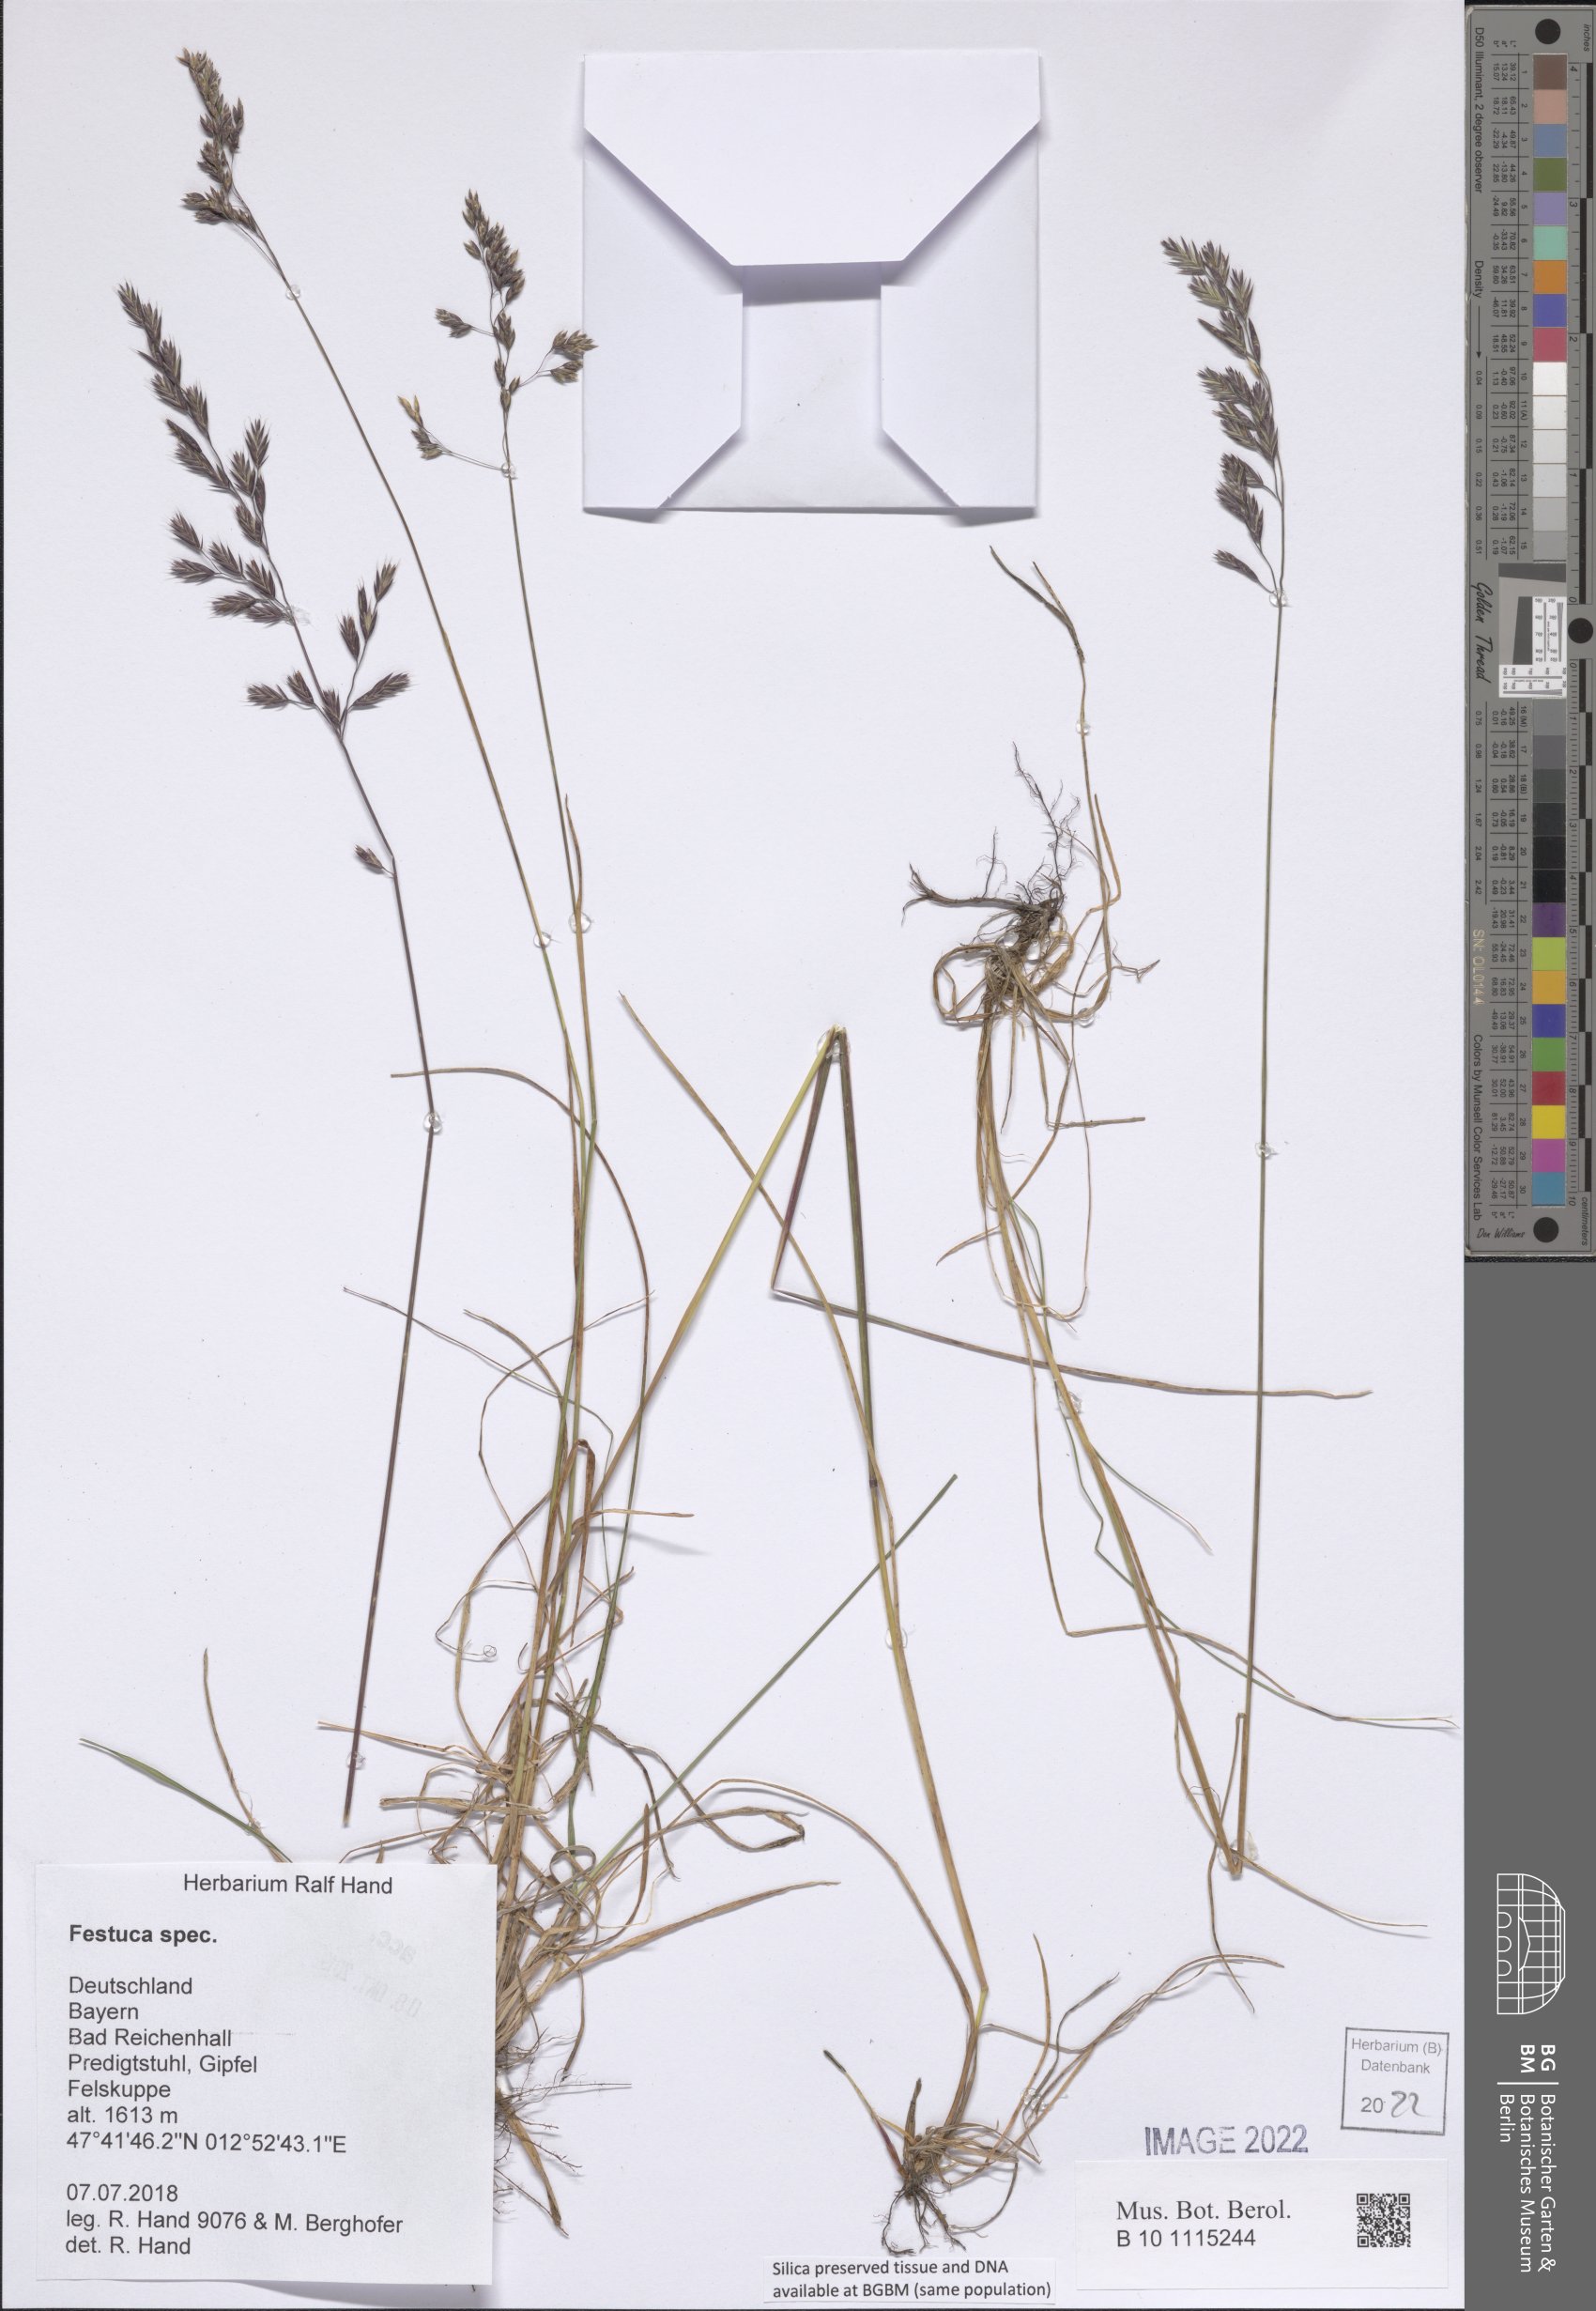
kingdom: Plantae
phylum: Tracheophyta
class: Liliopsida
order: Poales
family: Poaceae
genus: Festuca
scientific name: Festuca
